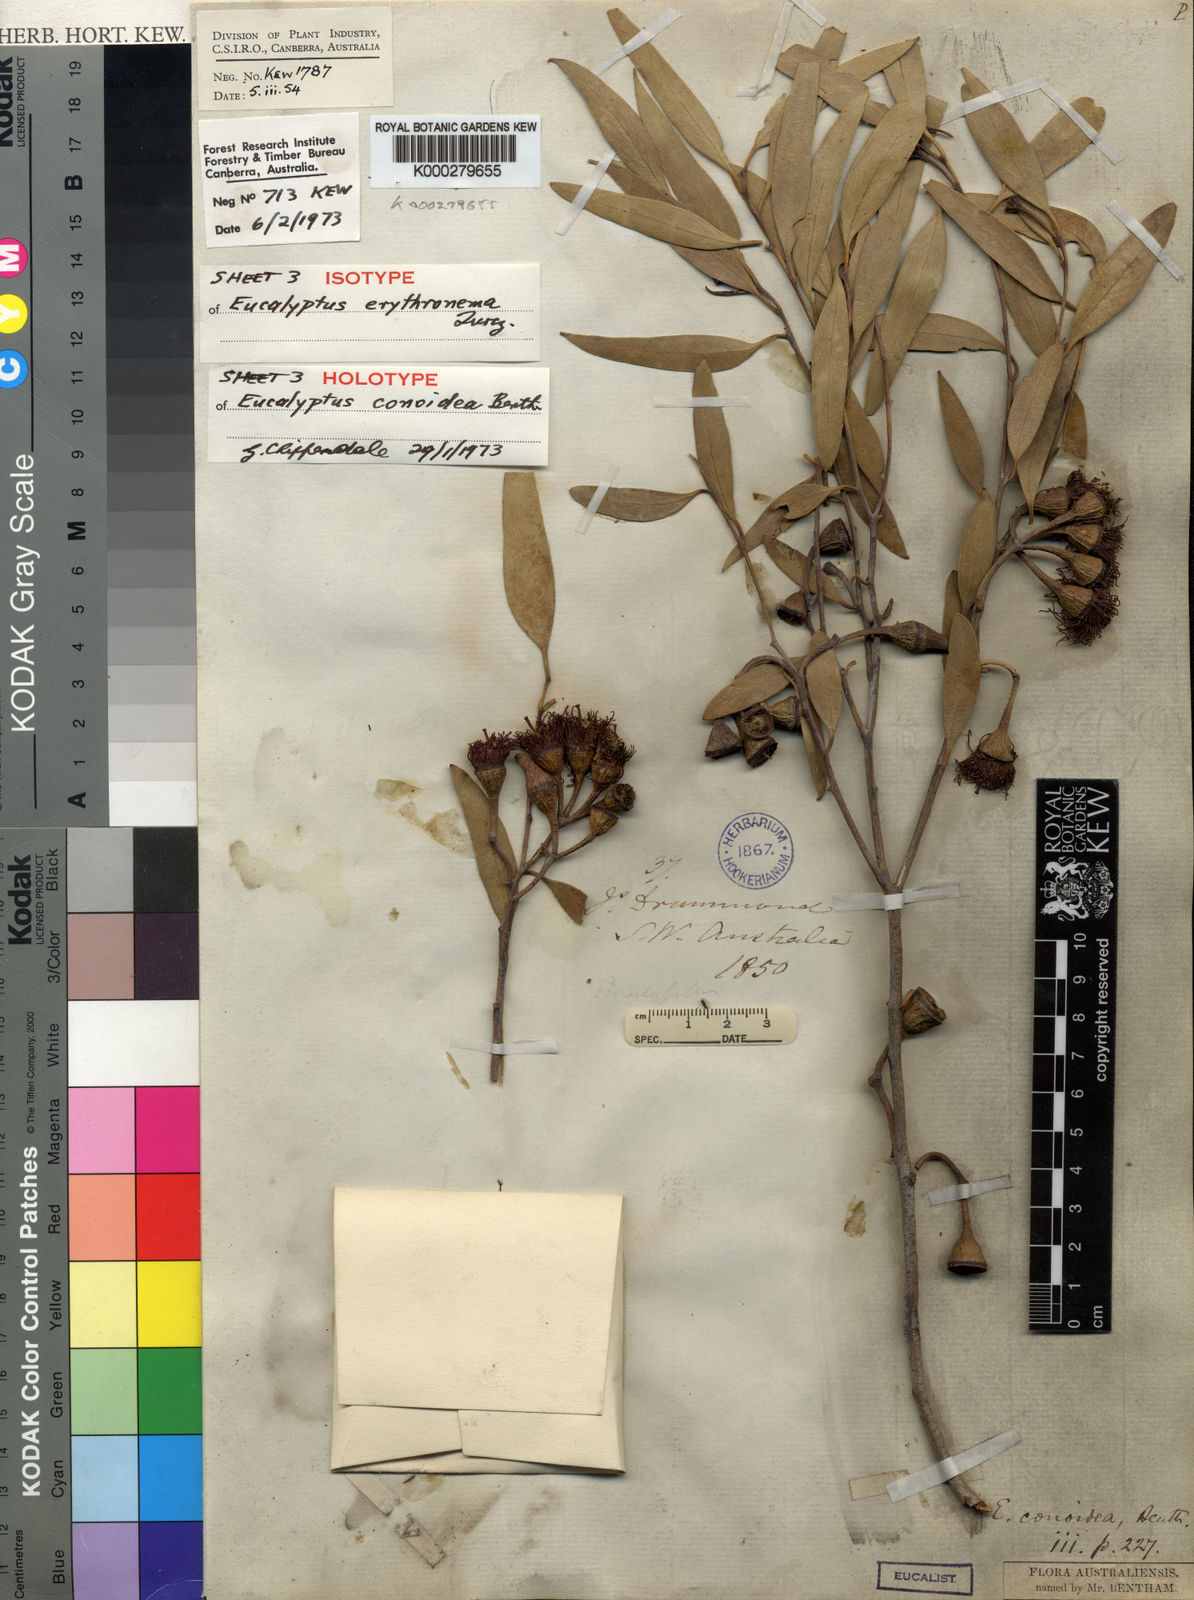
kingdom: Plantae
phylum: Tracheophyta
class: Magnoliopsida
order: Myrtales
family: Myrtaceae
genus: Eucalyptus
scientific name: Eucalyptus erythronema
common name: Red-flowered mallee
